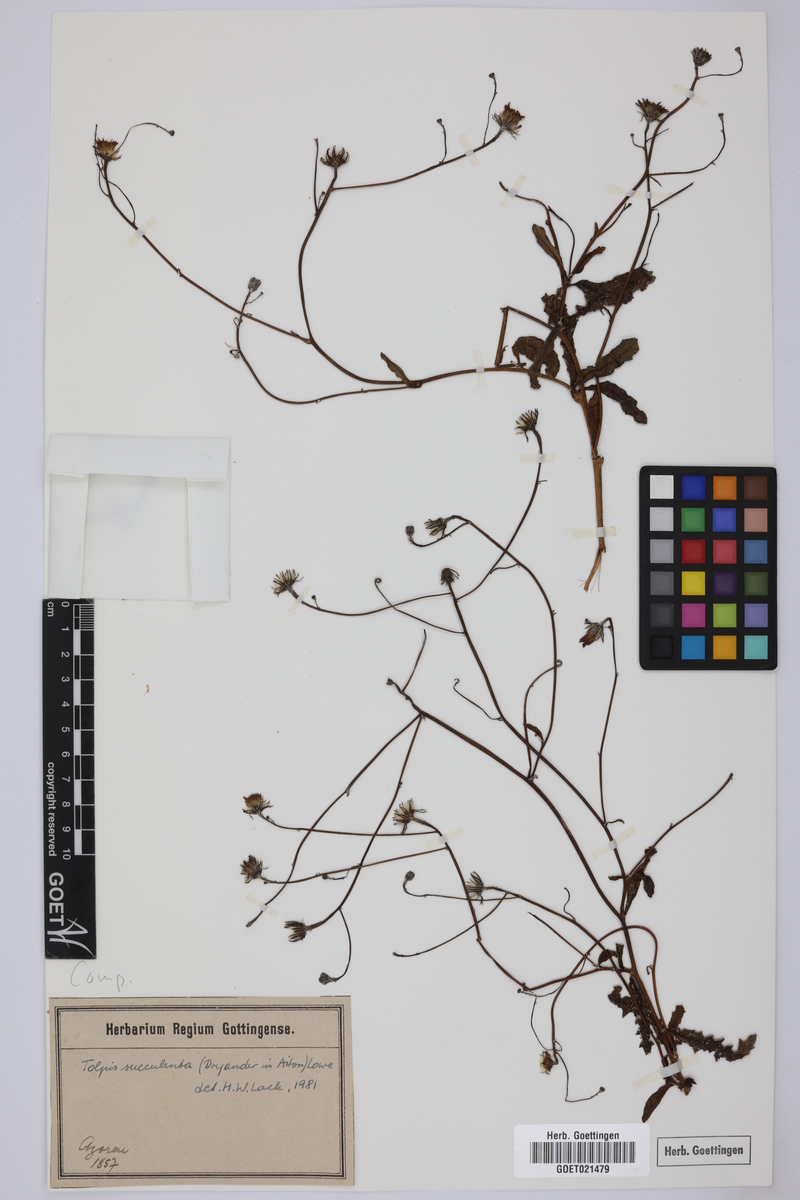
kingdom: Plantae
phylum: Tracheophyta
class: Magnoliopsida
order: Asterales
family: Asteraceae
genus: Tolpis
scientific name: Tolpis succulenta
